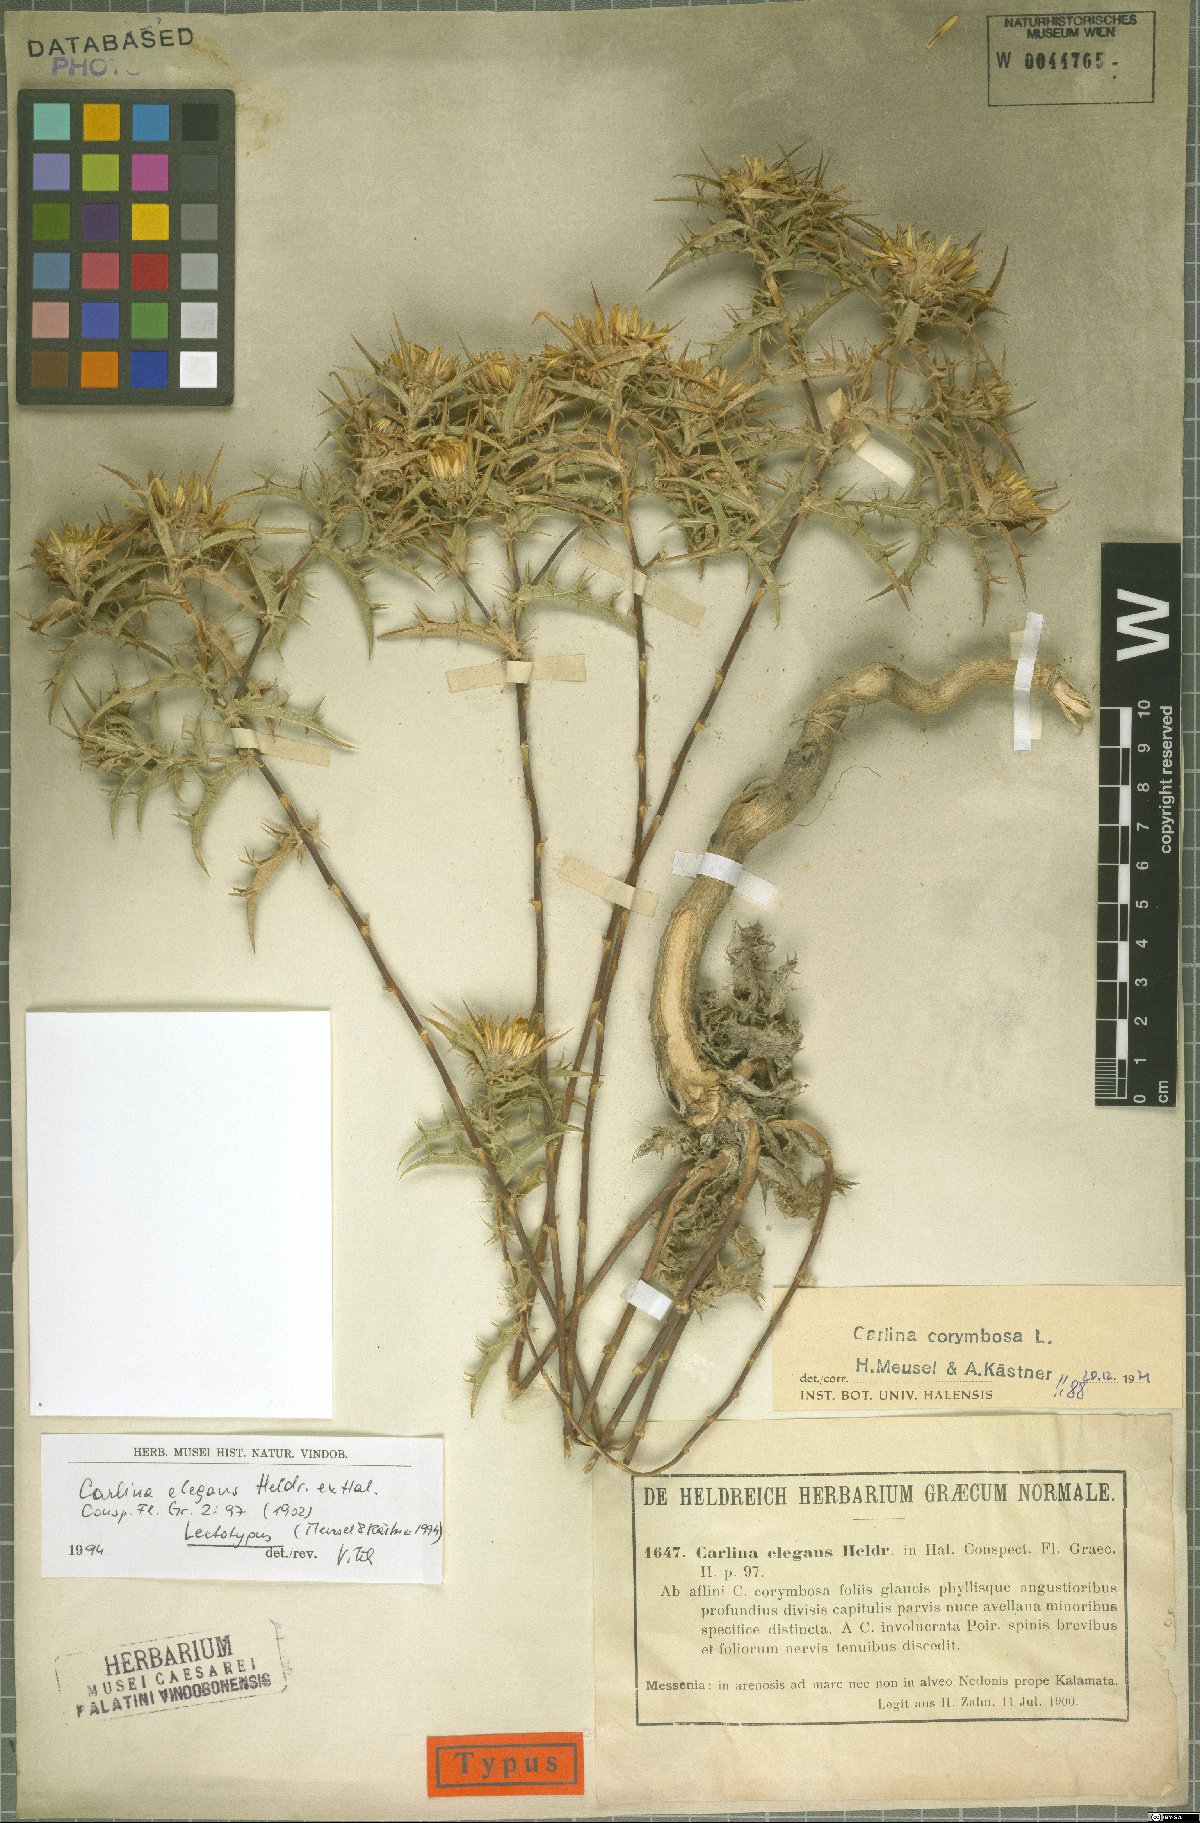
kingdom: Plantae
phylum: Tracheophyta
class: Magnoliopsida
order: Asterales
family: Asteraceae
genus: Carlina
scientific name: Carlina corymbosa
